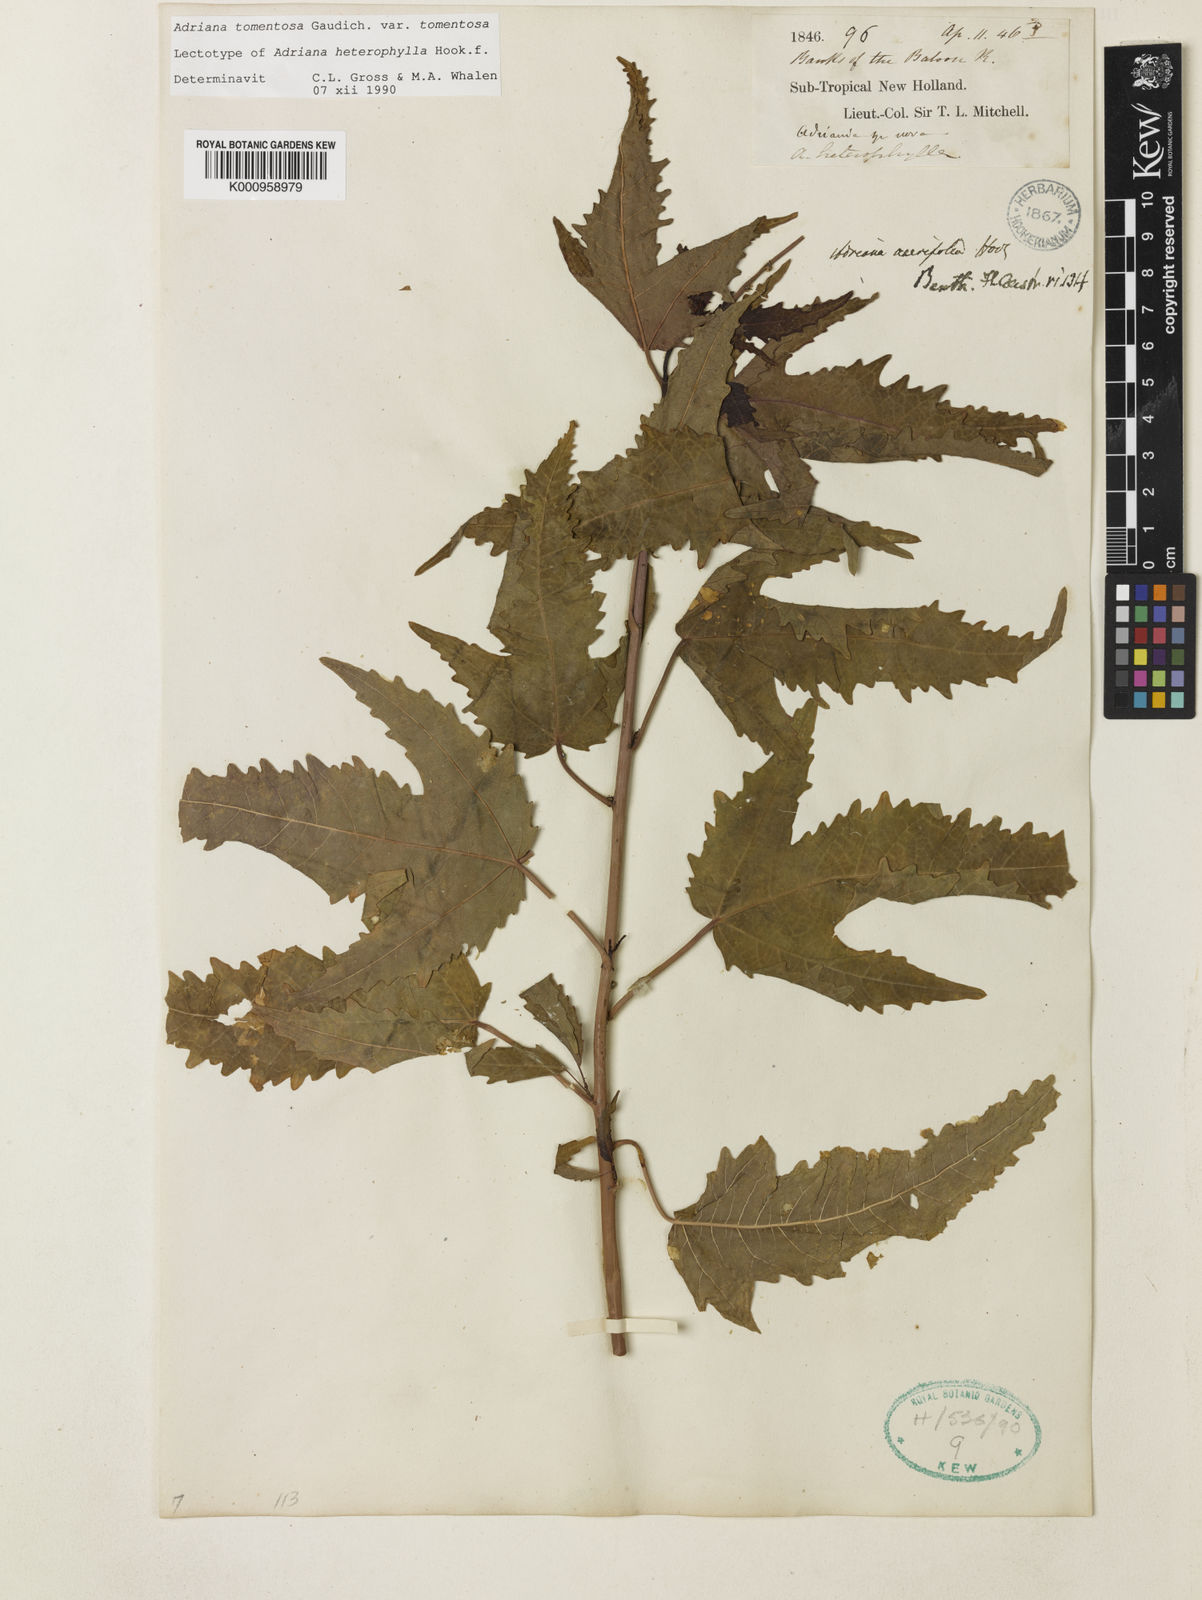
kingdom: Plantae
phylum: Tracheophyta
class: Magnoliopsida
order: Malpighiales
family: Euphorbiaceae
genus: Adriana
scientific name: Adriana tomentosa
